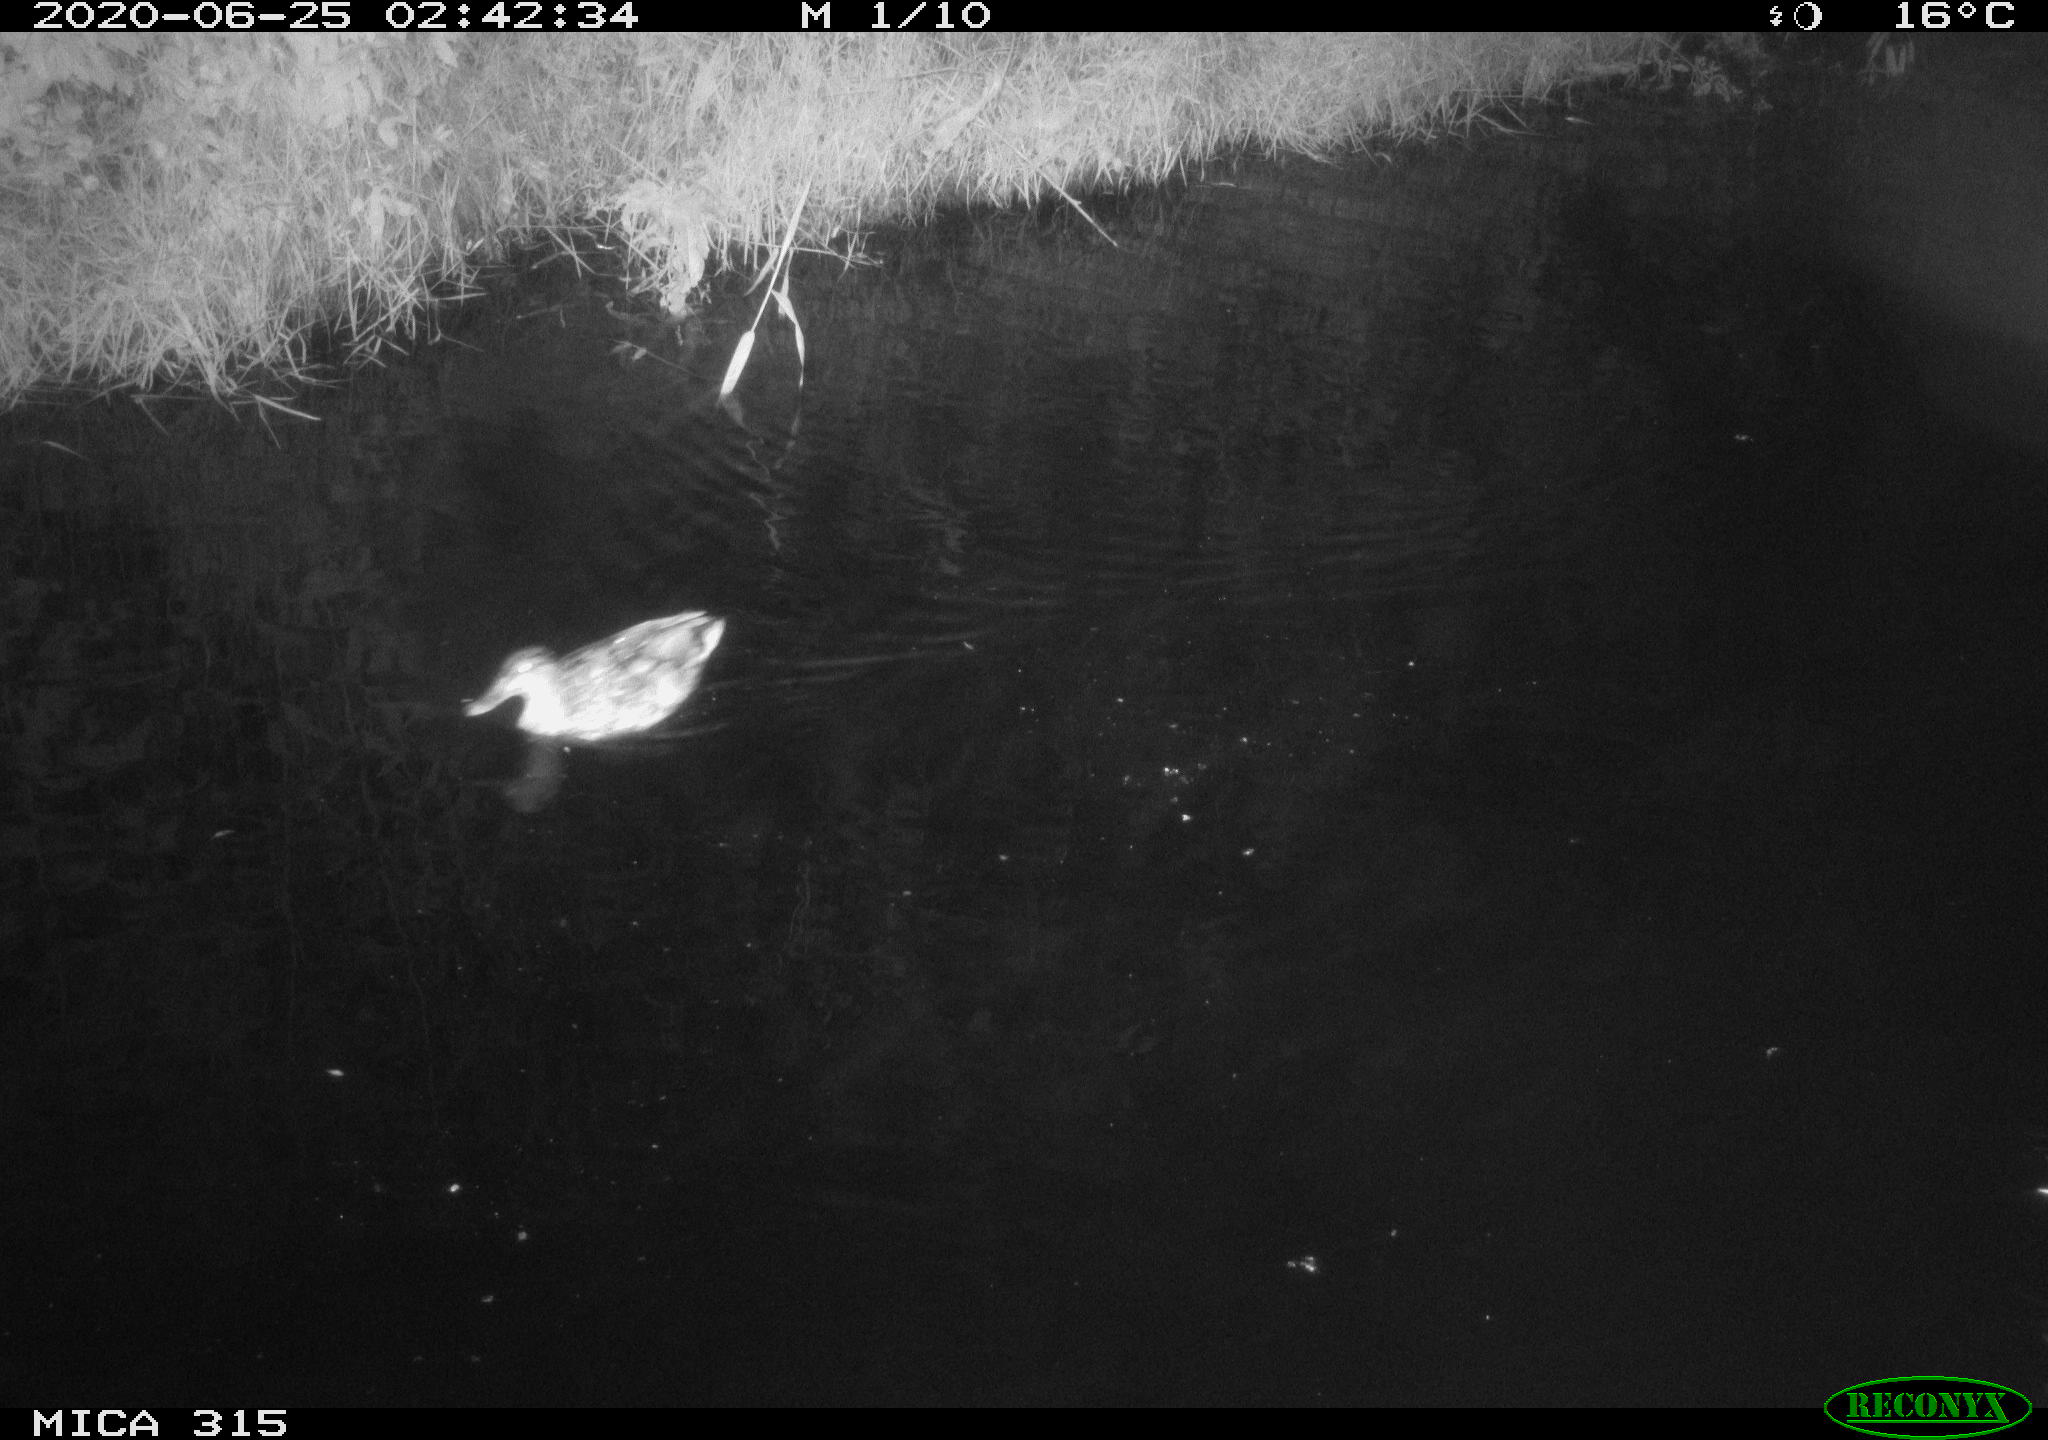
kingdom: Animalia
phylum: Chordata
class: Aves
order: Anseriformes
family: Anatidae
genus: Anas
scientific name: Anas platyrhynchos
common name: Mallard
